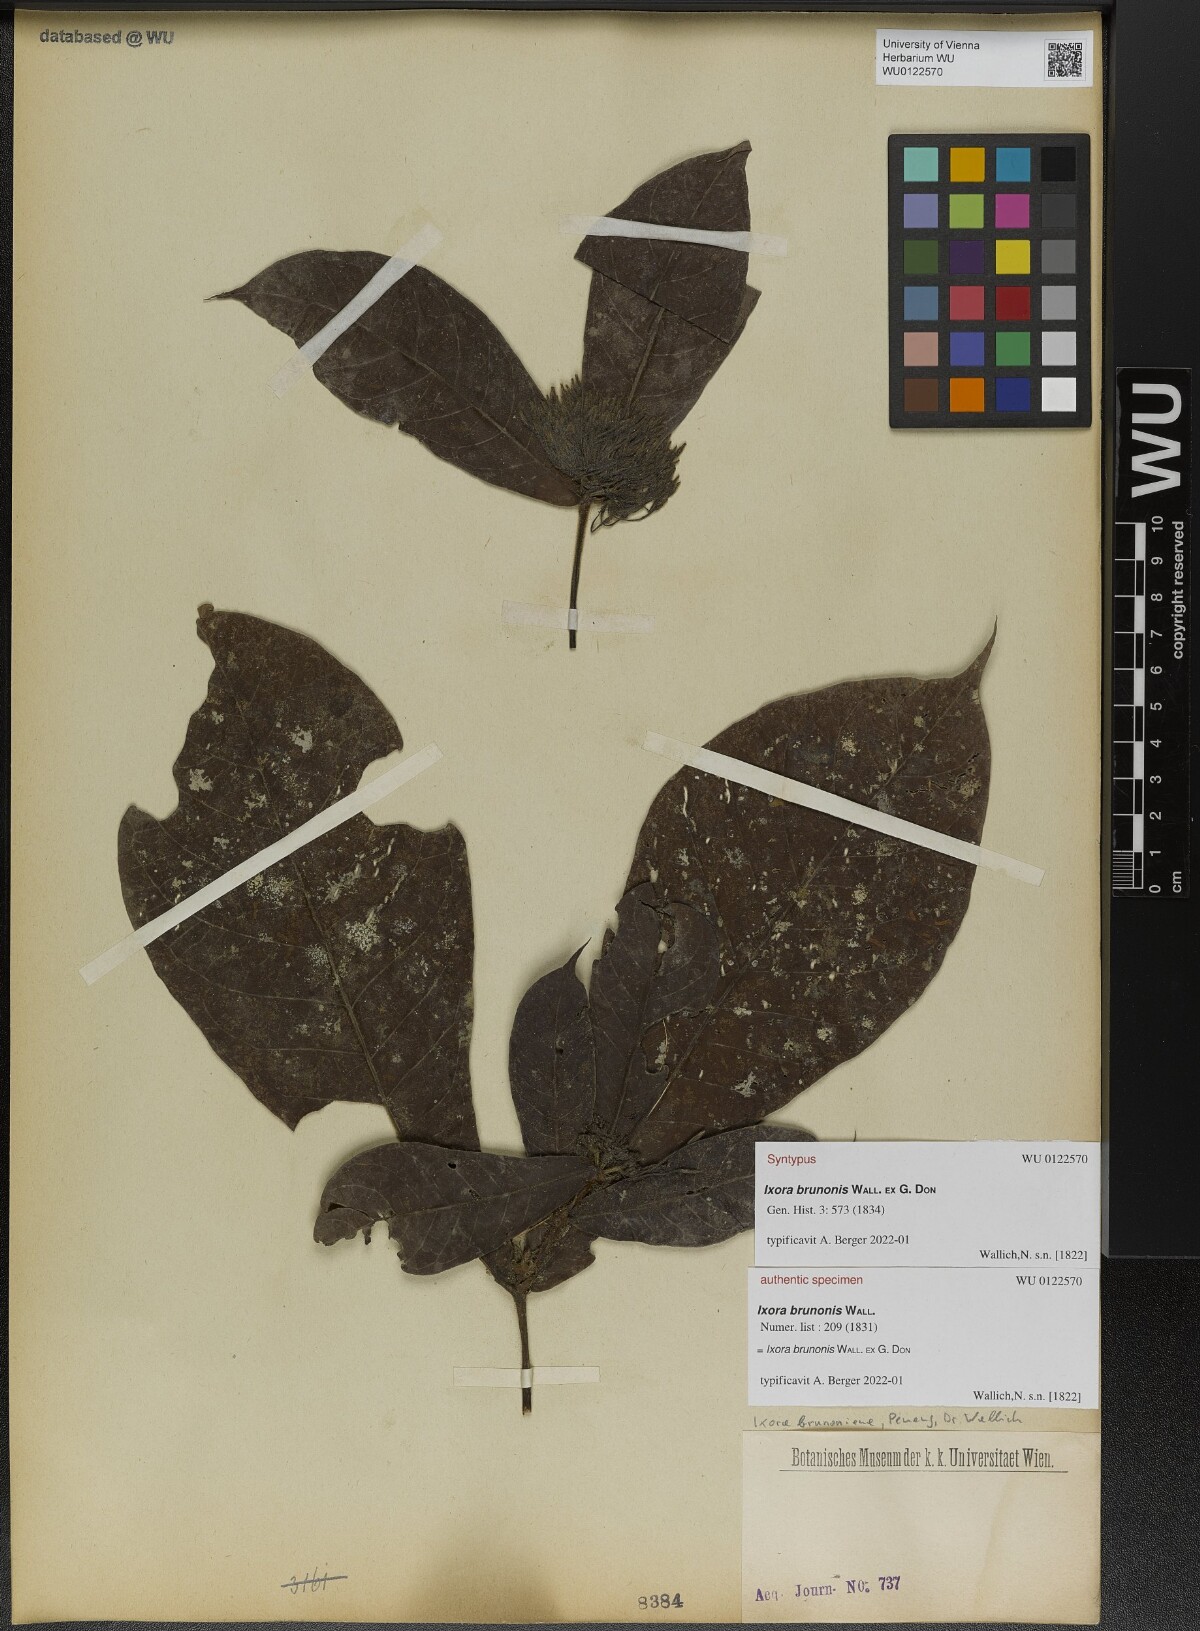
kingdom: Plantae
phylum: Tracheophyta
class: Magnoliopsida
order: Gentianales
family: Rubiaceae
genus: Ixora
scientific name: Ixora brunonis
